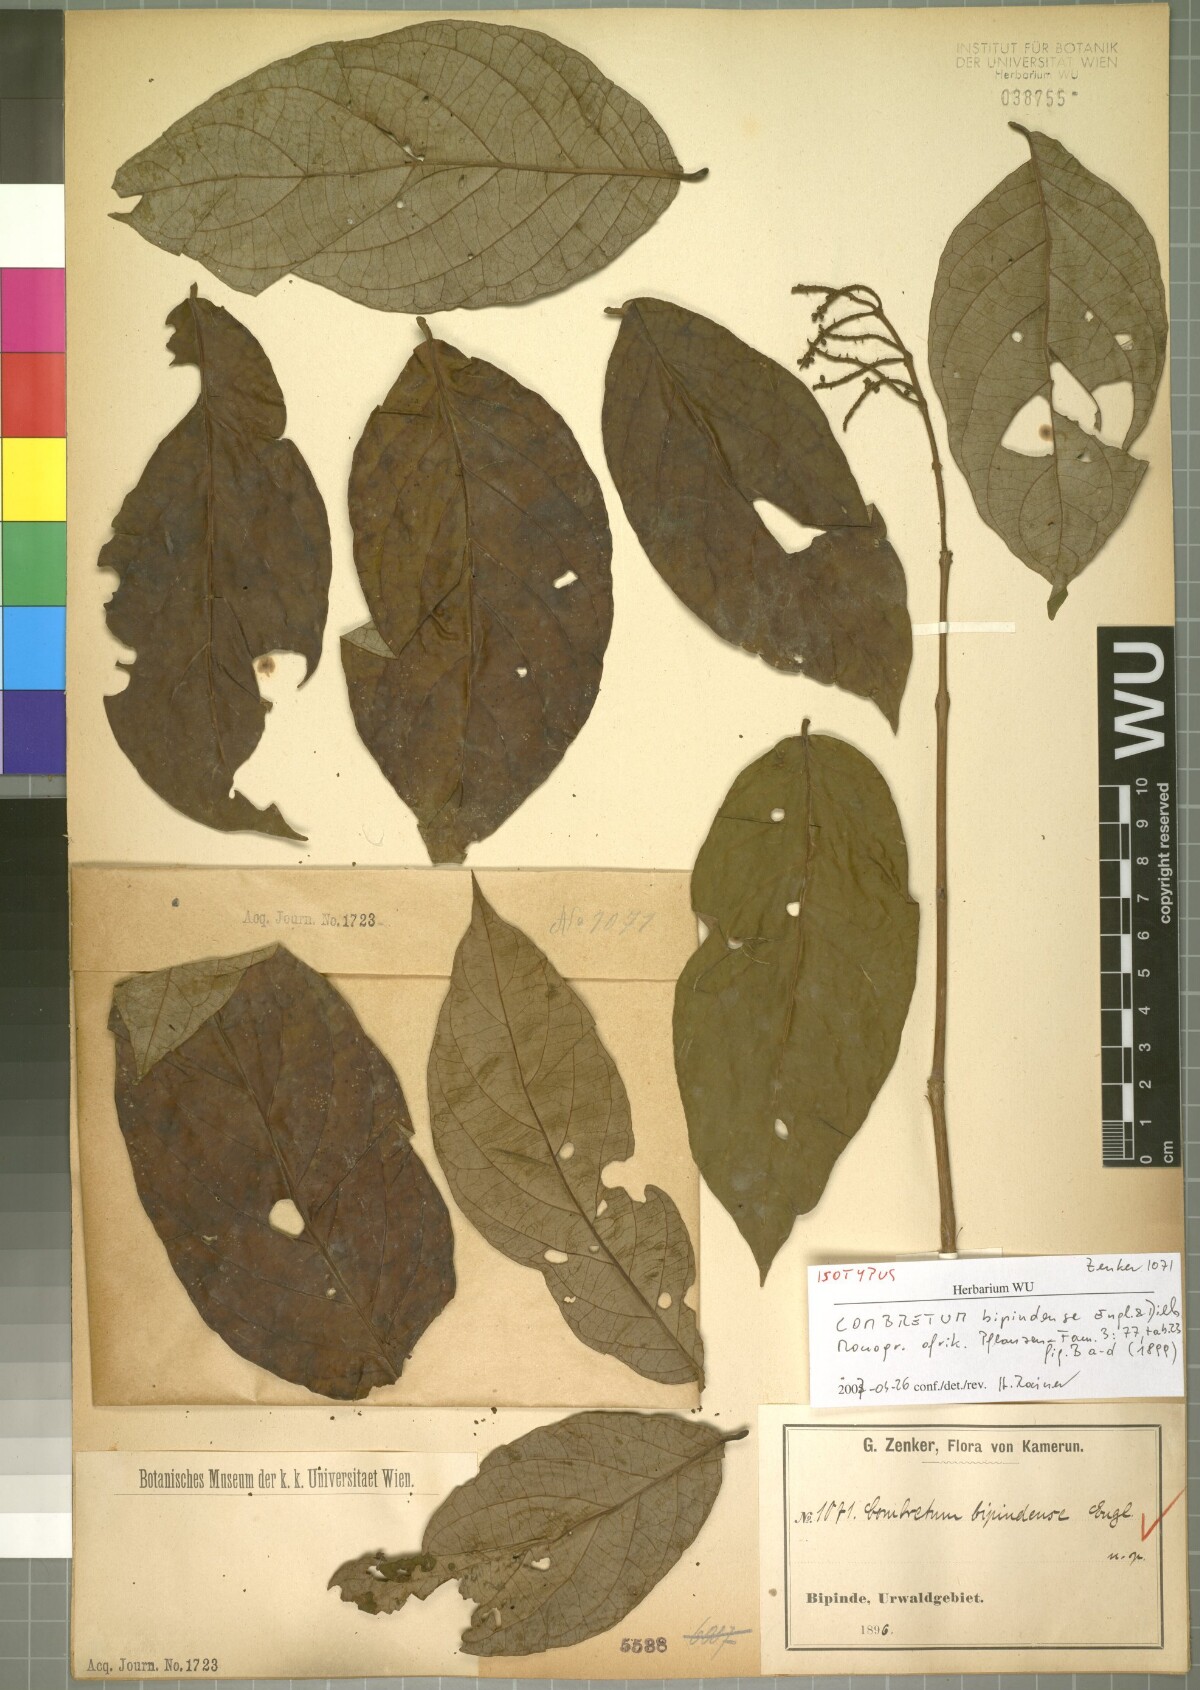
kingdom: Plantae
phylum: Tracheophyta
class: Magnoliopsida
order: Myrtales
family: Combretaceae
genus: Combretum
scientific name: Combretum bipindense
